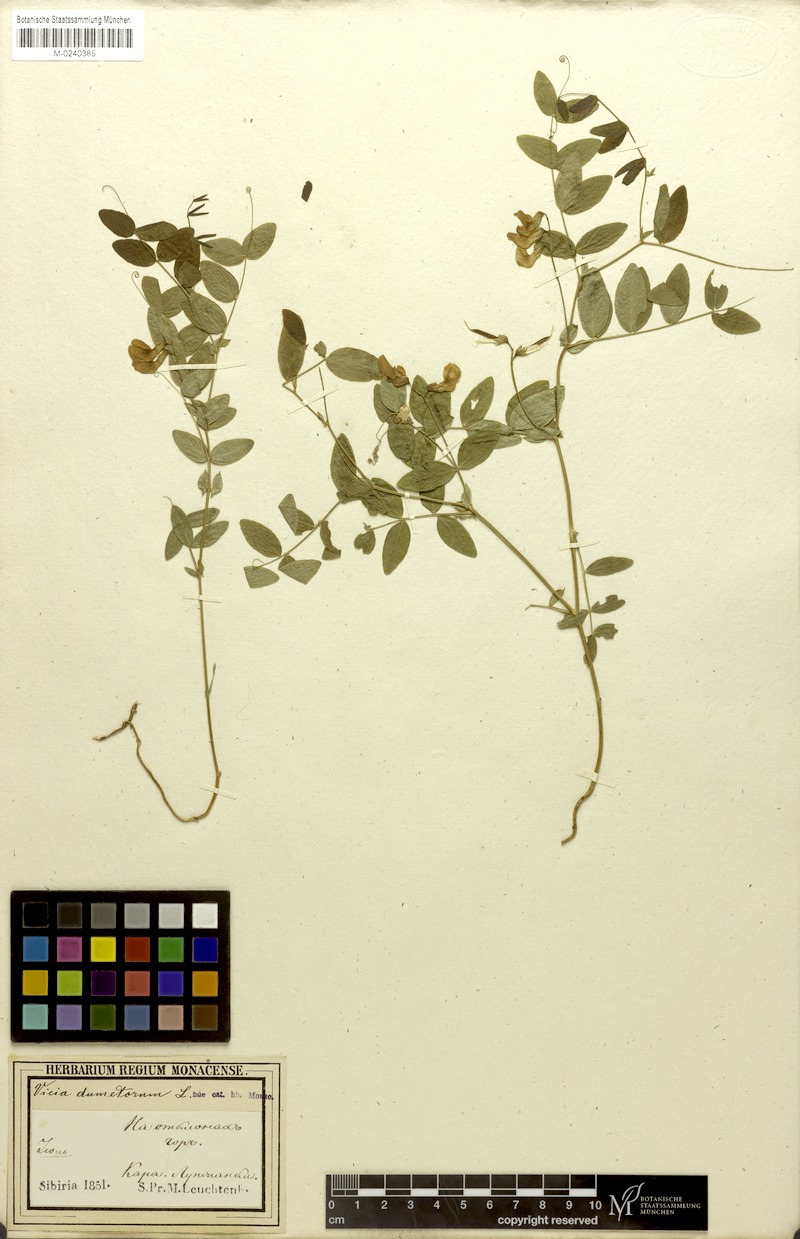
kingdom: Plantae
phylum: Tracheophyta
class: Magnoliopsida
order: Fabales
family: Fabaceae
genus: Vicia
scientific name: Vicia dumetorum
